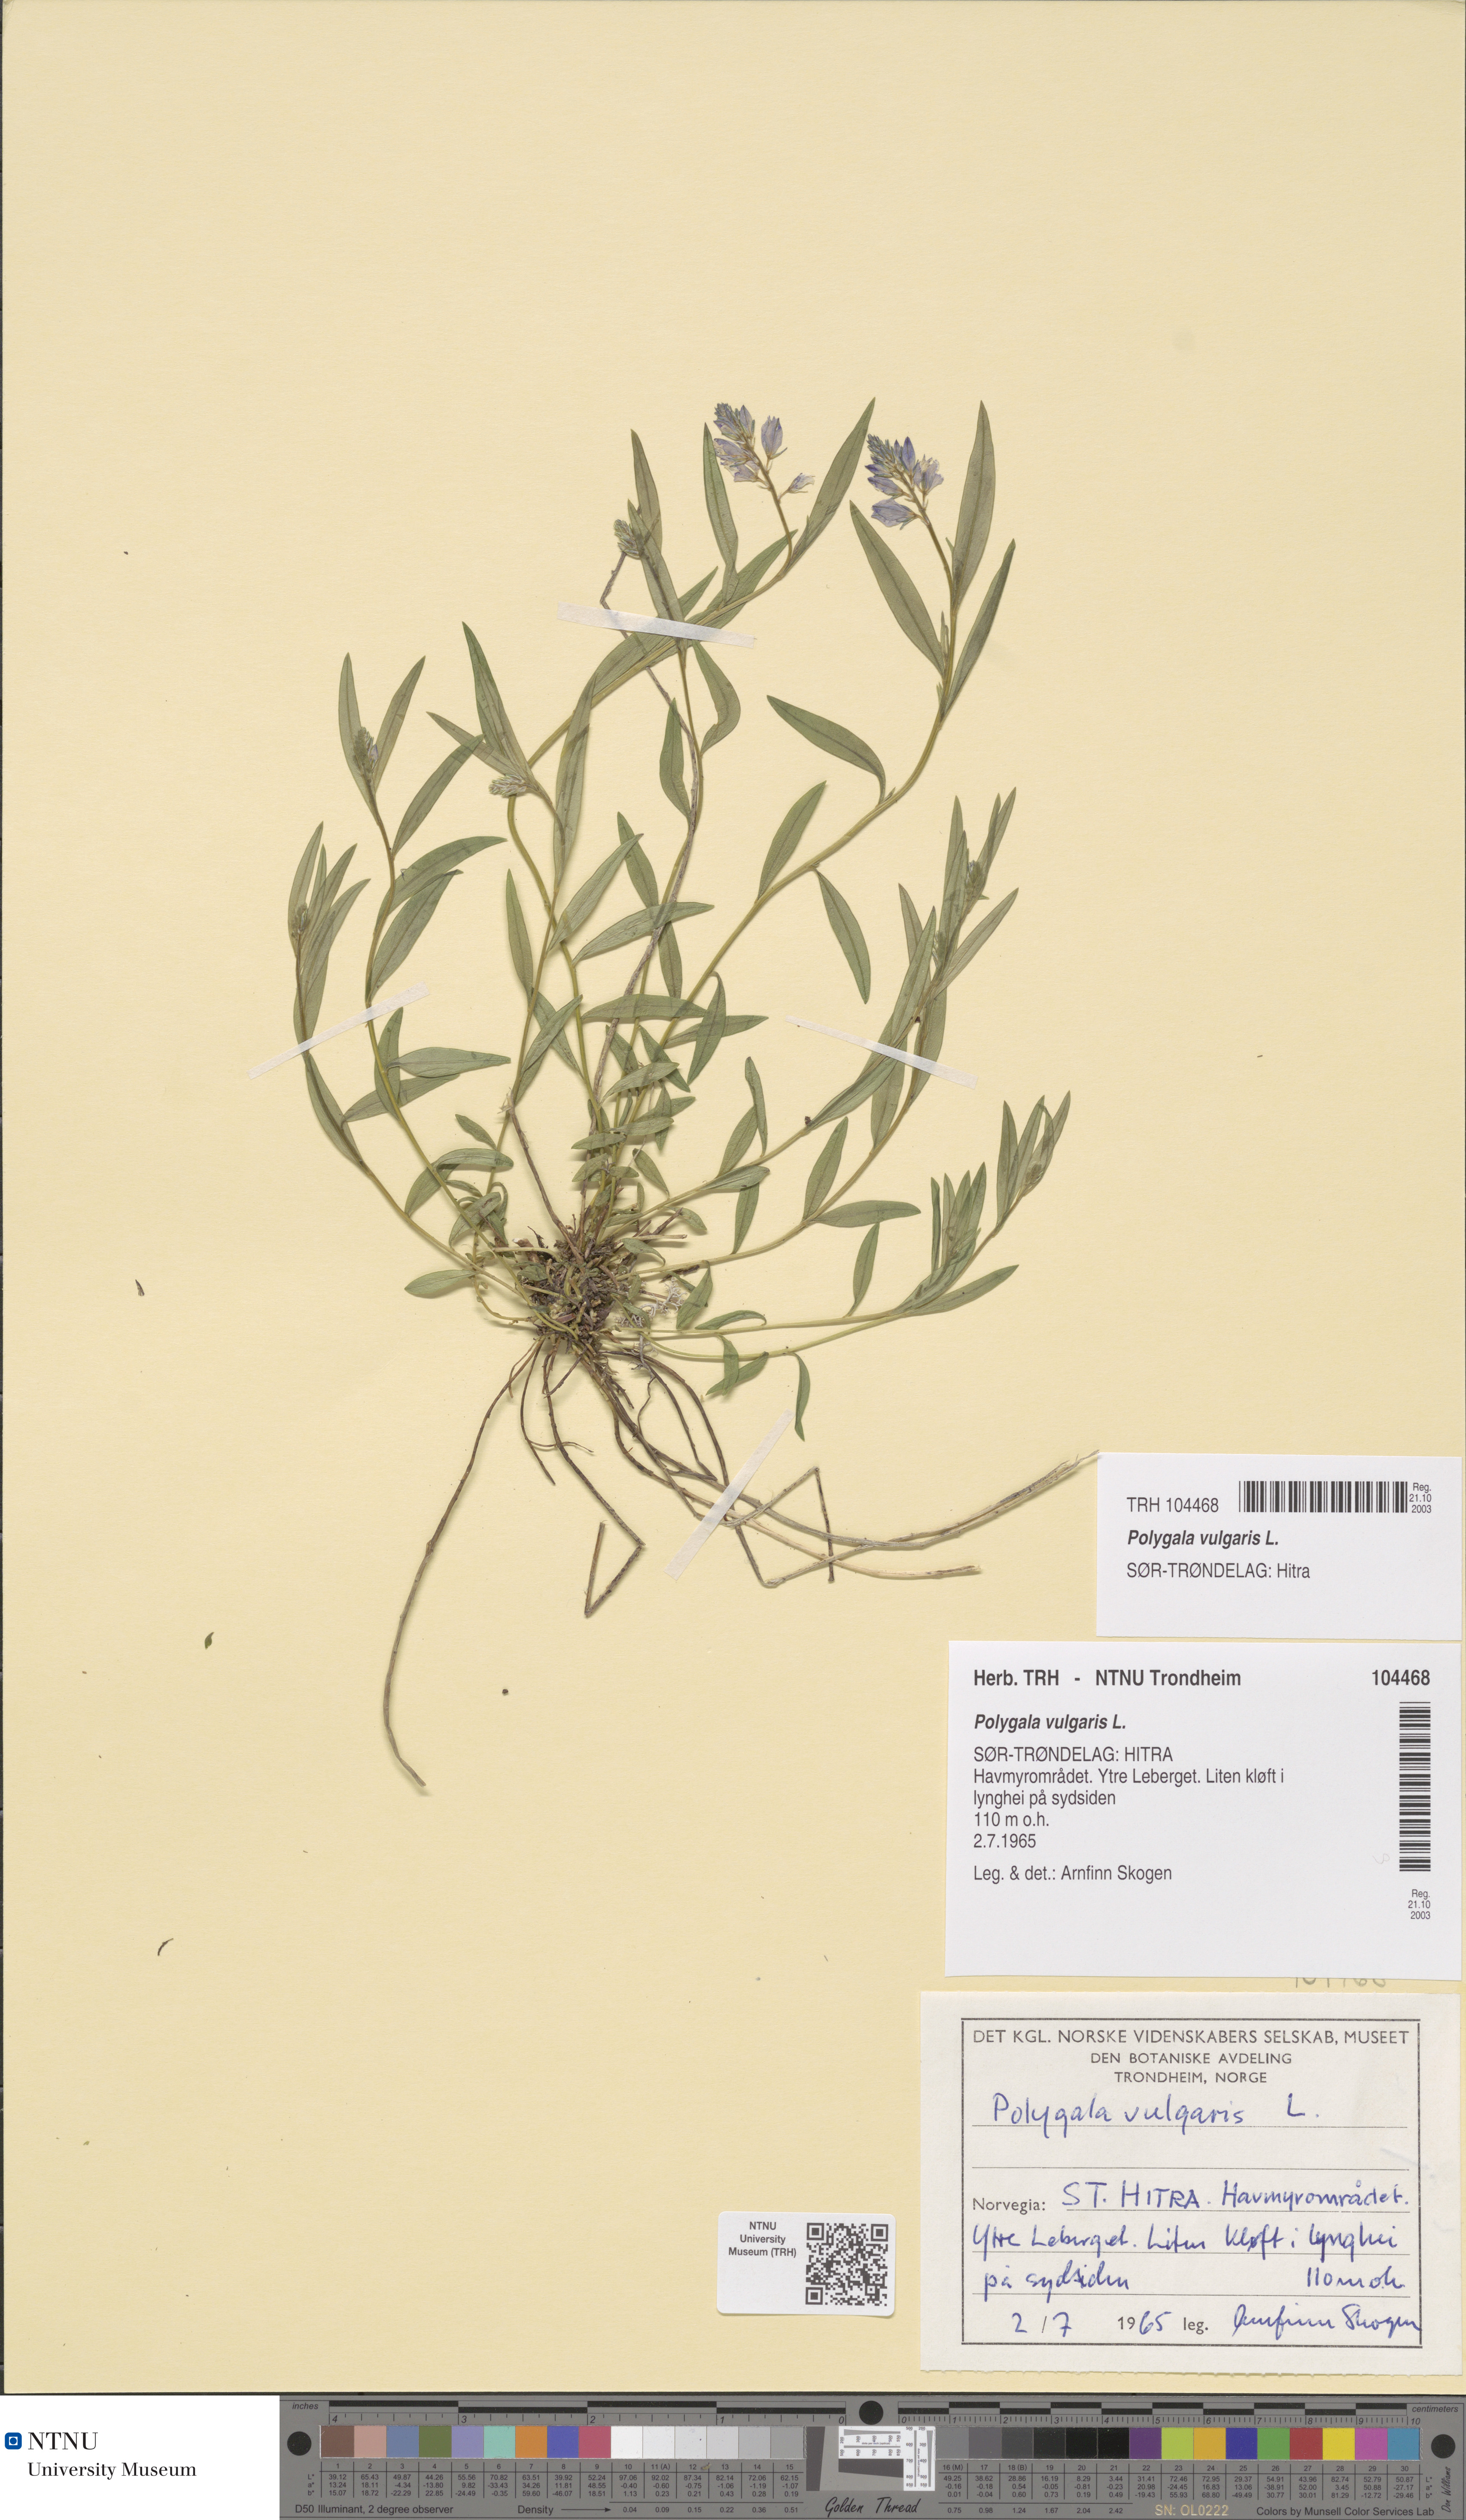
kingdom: Plantae
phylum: Tracheophyta
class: Magnoliopsida
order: Fabales
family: Polygalaceae
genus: Polygala
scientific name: Polygala vulgaris
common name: Common milkwort
